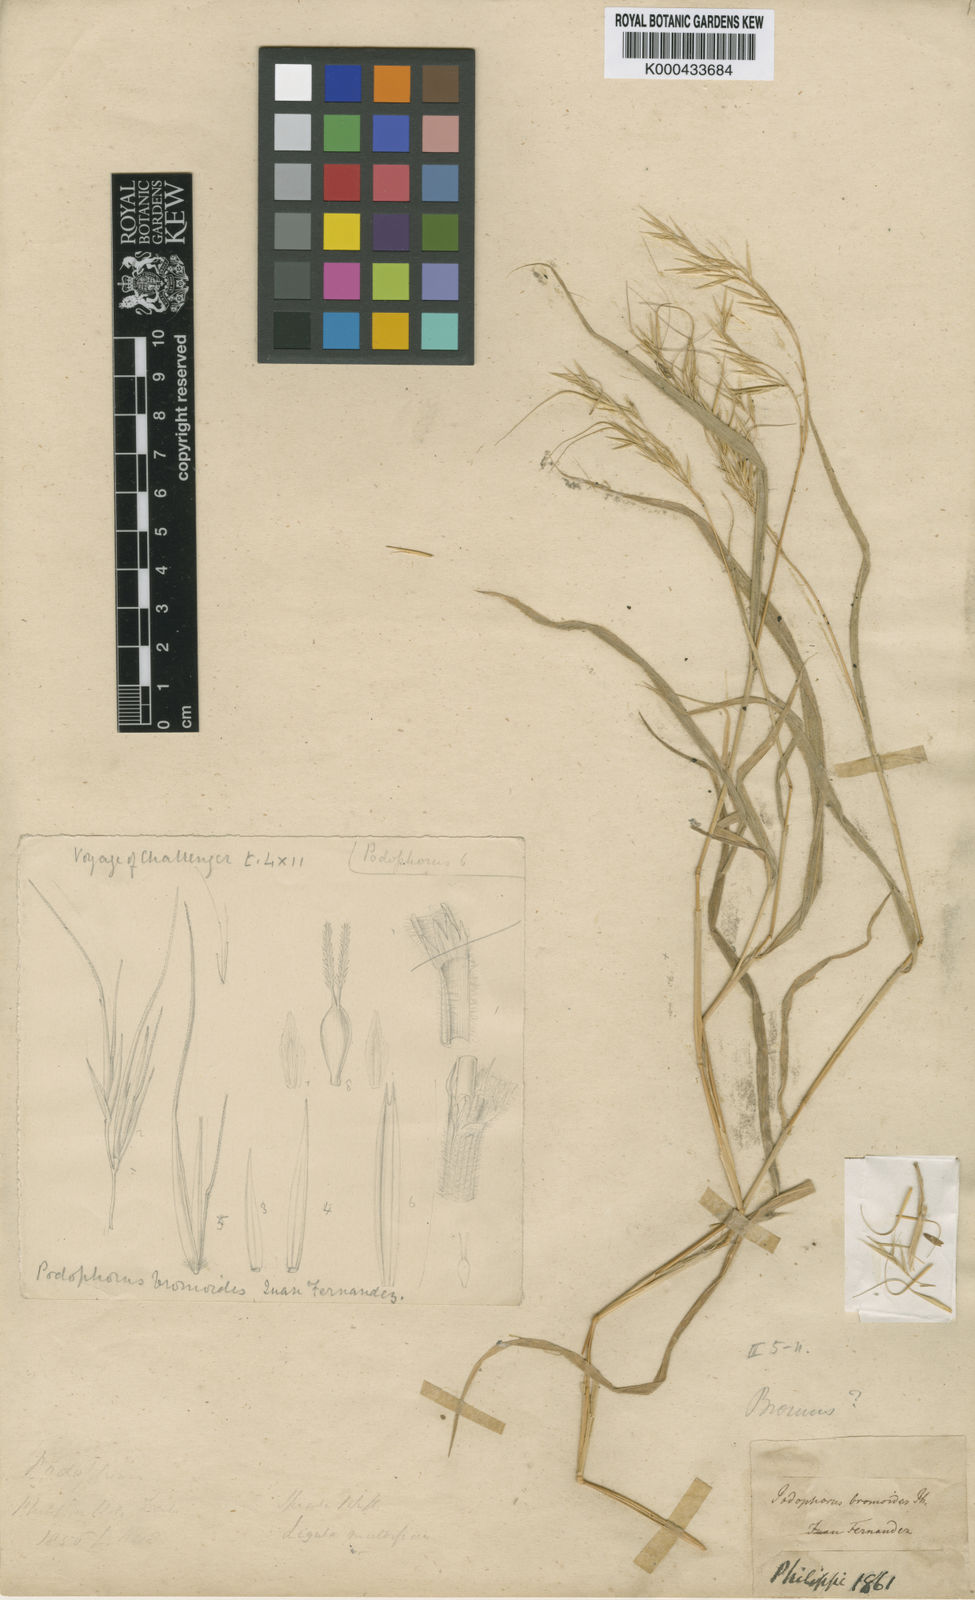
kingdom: Plantae
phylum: Tracheophyta
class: Liliopsida
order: Poales
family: Poaceae
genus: Festuca
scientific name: Festuca masatierrae
